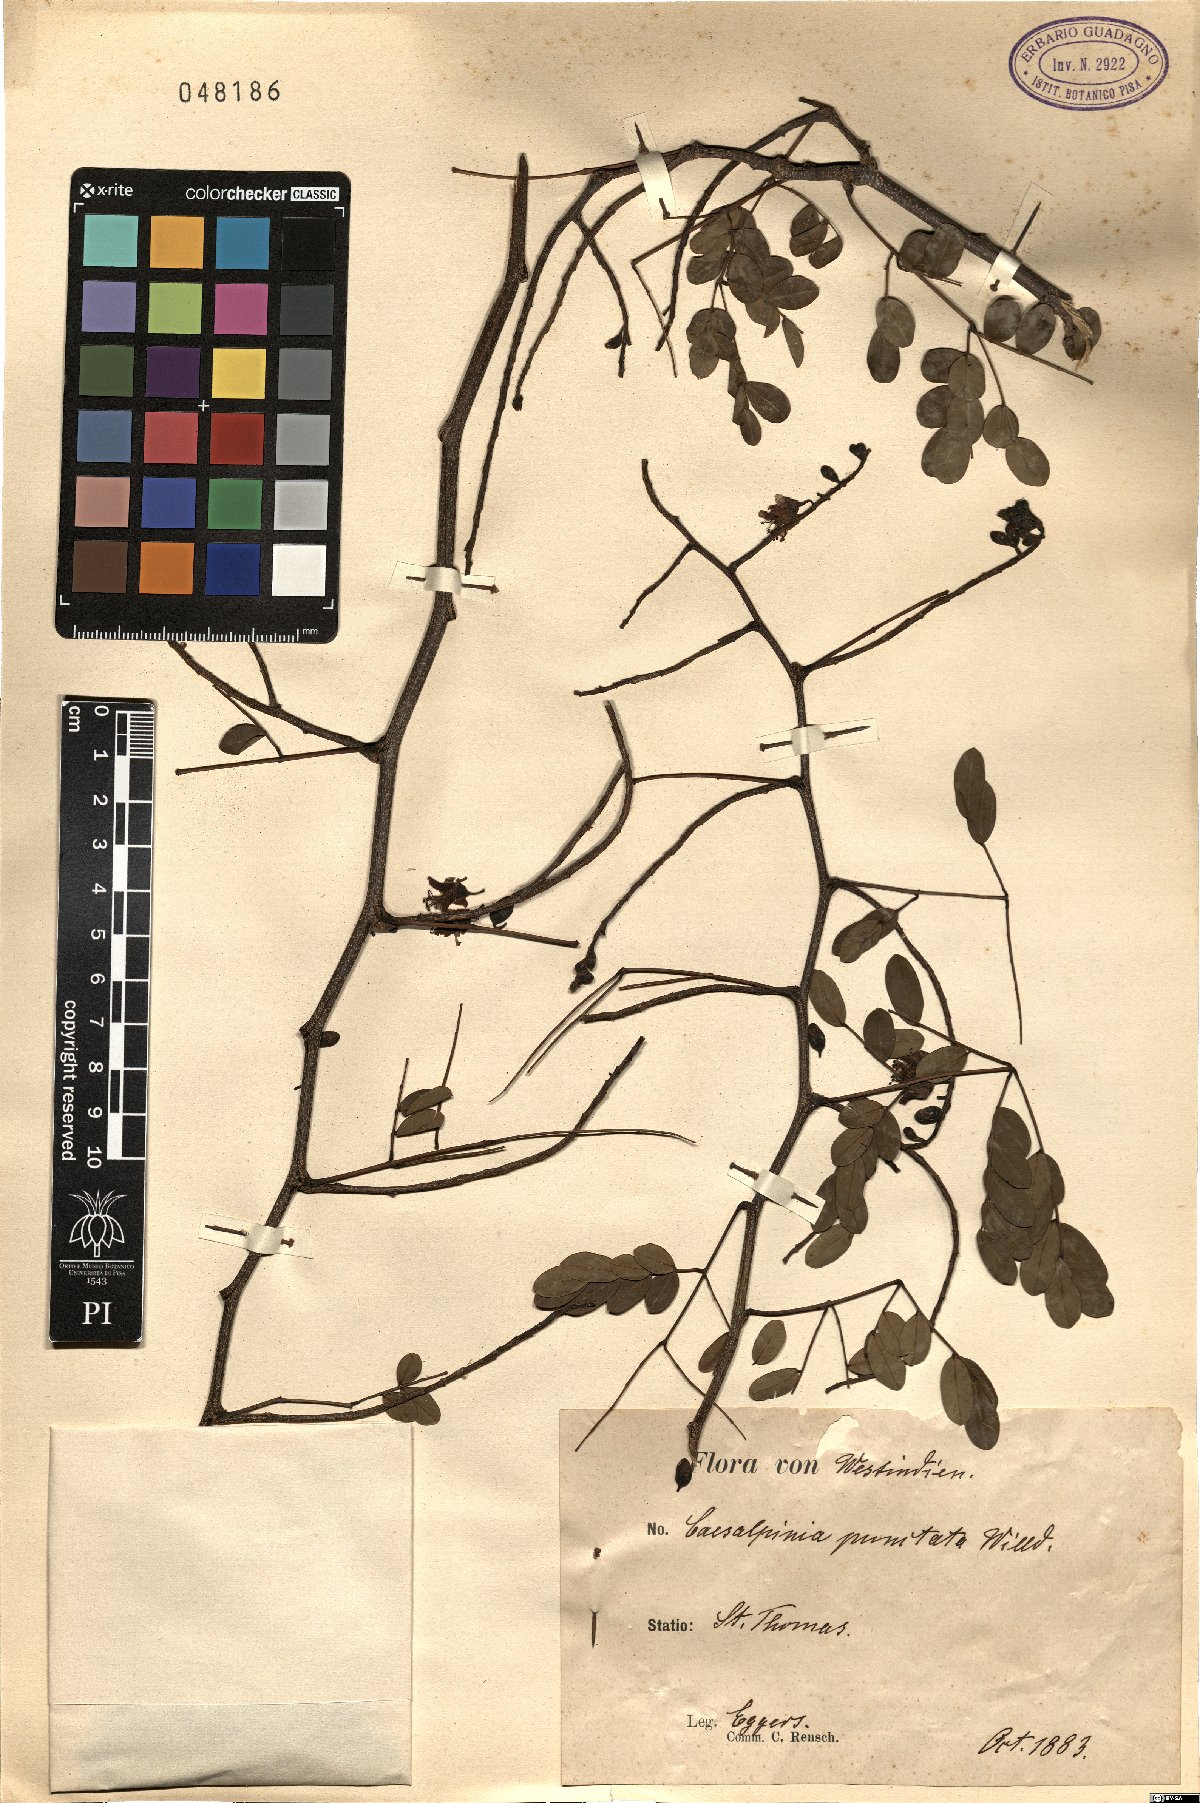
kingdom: Plantae
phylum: Tracheophyta
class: Magnoliopsida
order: Fabales
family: Fabaceae
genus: Libidibia
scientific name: Libidibia punctata
